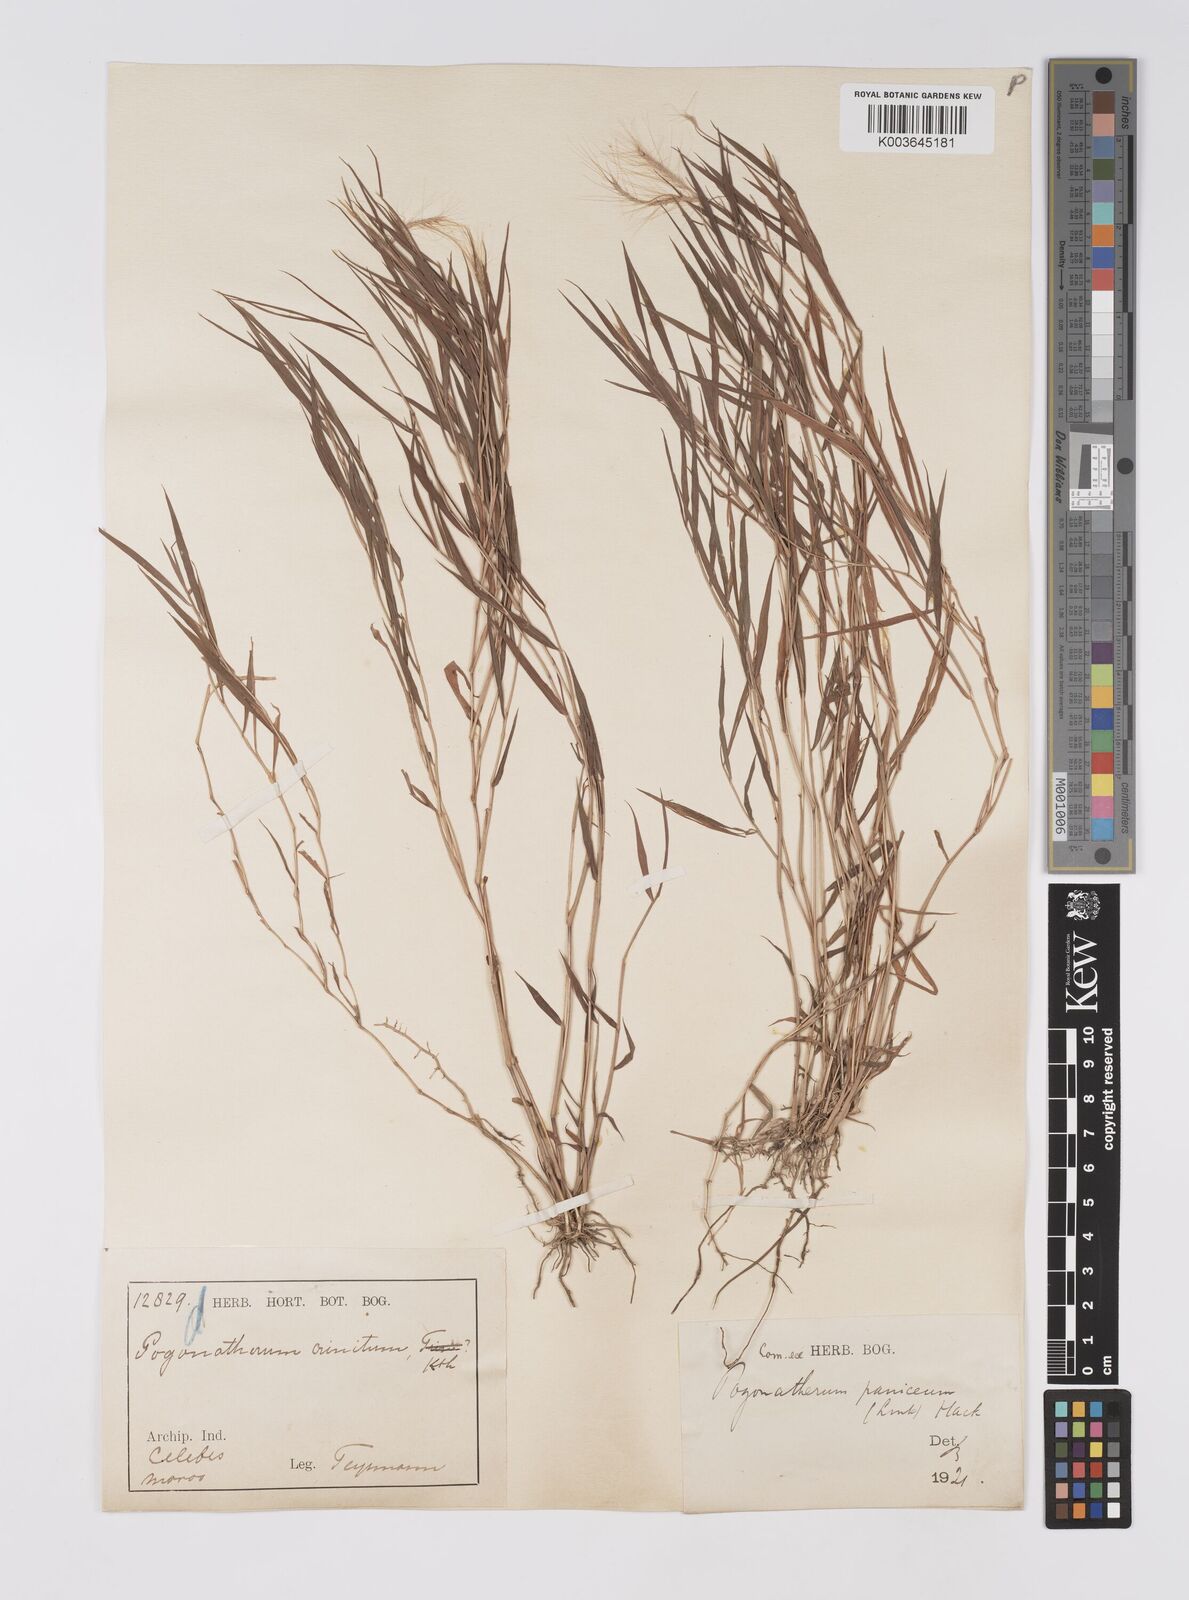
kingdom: Plantae
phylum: Tracheophyta
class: Liliopsida
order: Poales
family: Poaceae
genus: Pogonatherum
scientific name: Pogonatherum crinitum
